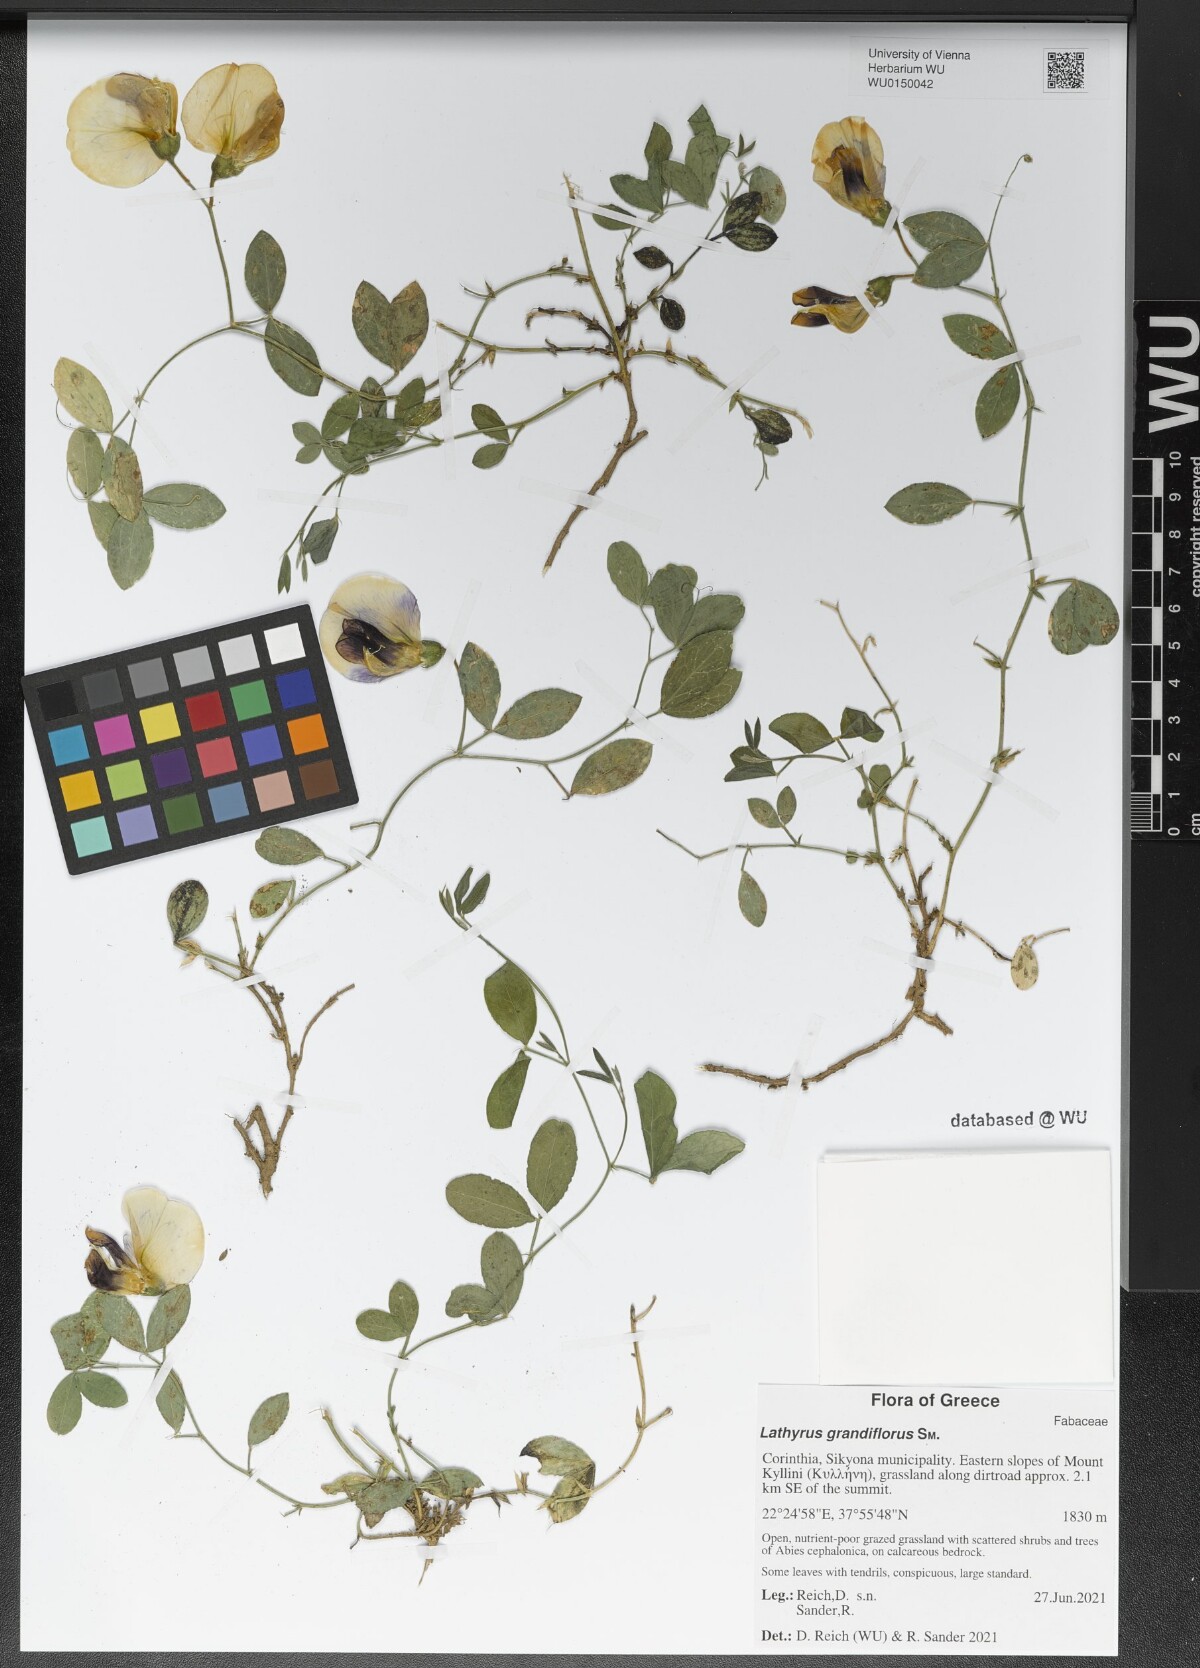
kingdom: Plantae
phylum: Tracheophyta
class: Magnoliopsida
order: Fabales
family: Fabaceae
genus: Lathyrus
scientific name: Lathyrus grandiflorus
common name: Two-flowered everlasting-pea
